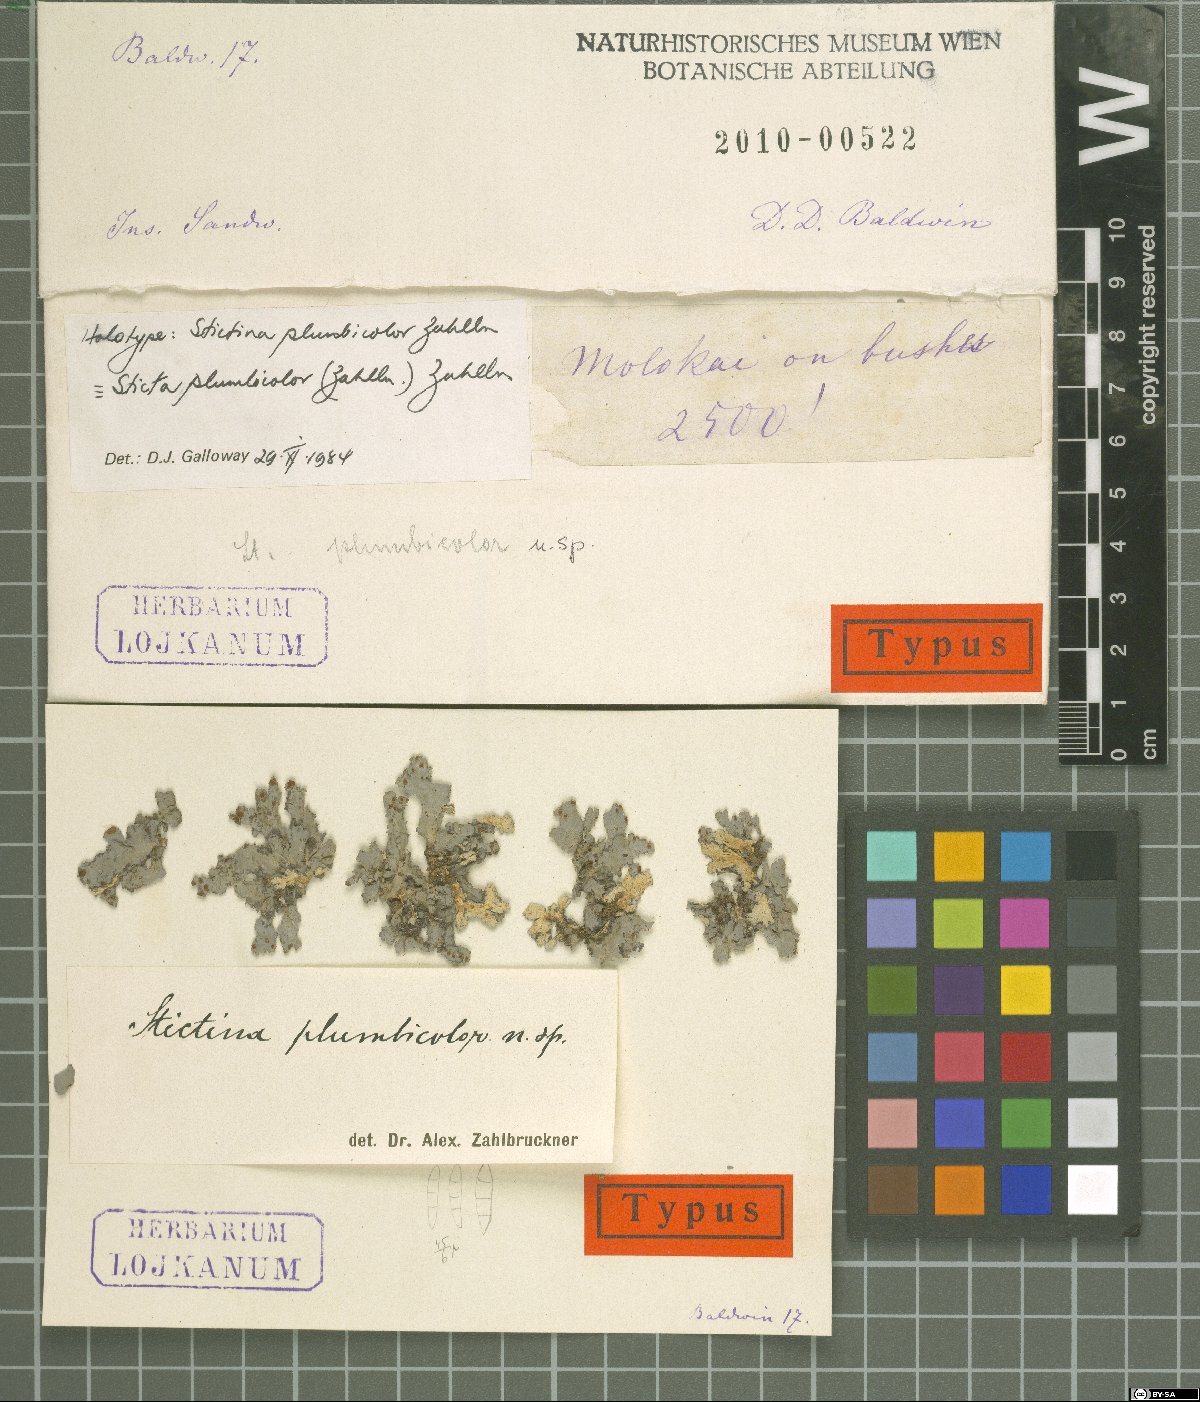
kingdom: Fungi
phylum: Ascomycota
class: Lecanoromycetes
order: Peltigerales
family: Lobariaceae
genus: Pseudocyphellaria
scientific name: Pseudocyphellaria
